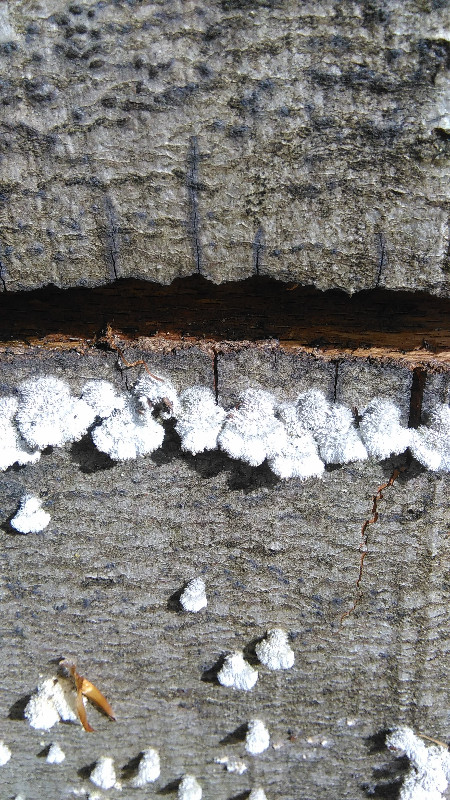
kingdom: Fungi
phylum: Basidiomycota
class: Agaricomycetes
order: Agaricales
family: Schizophyllaceae
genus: Schizophyllum
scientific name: Schizophyllum commune
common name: kløvblad
